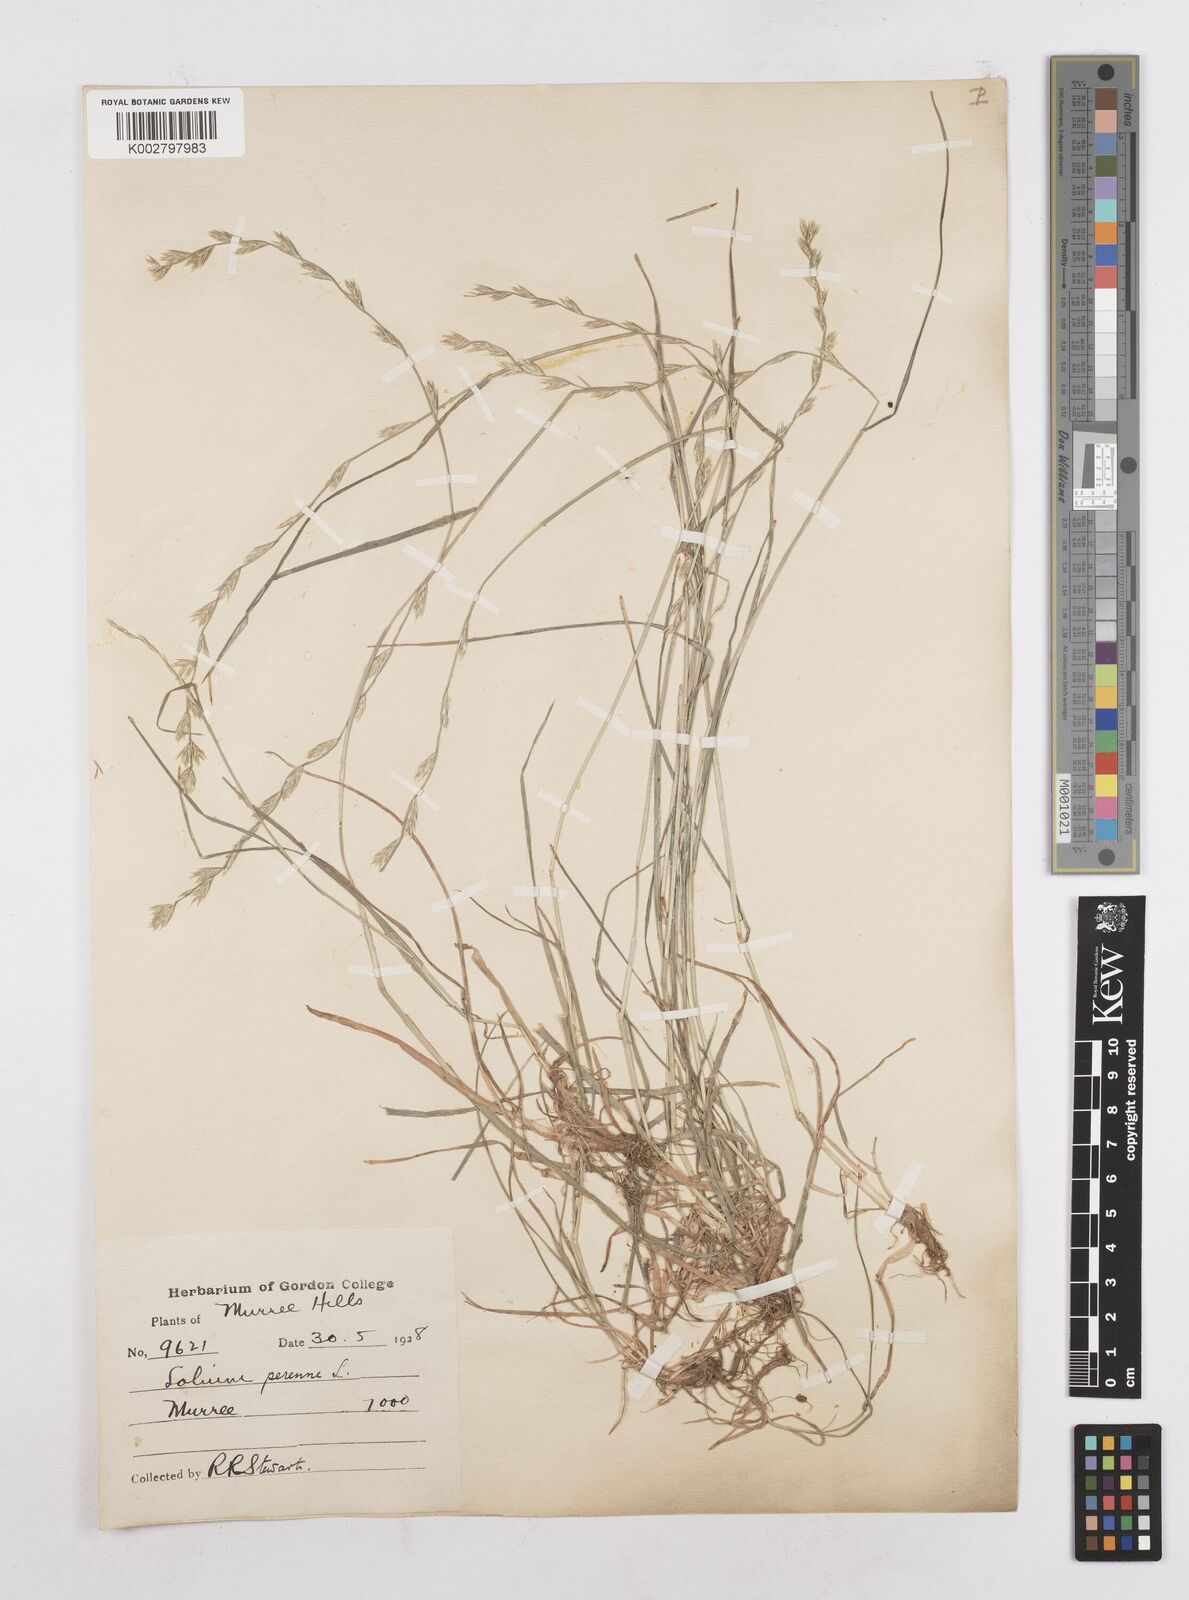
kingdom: Plantae
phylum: Tracheophyta
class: Liliopsida
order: Poales
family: Poaceae
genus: Lolium
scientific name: Lolium perenne
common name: Perennial ryegrass
